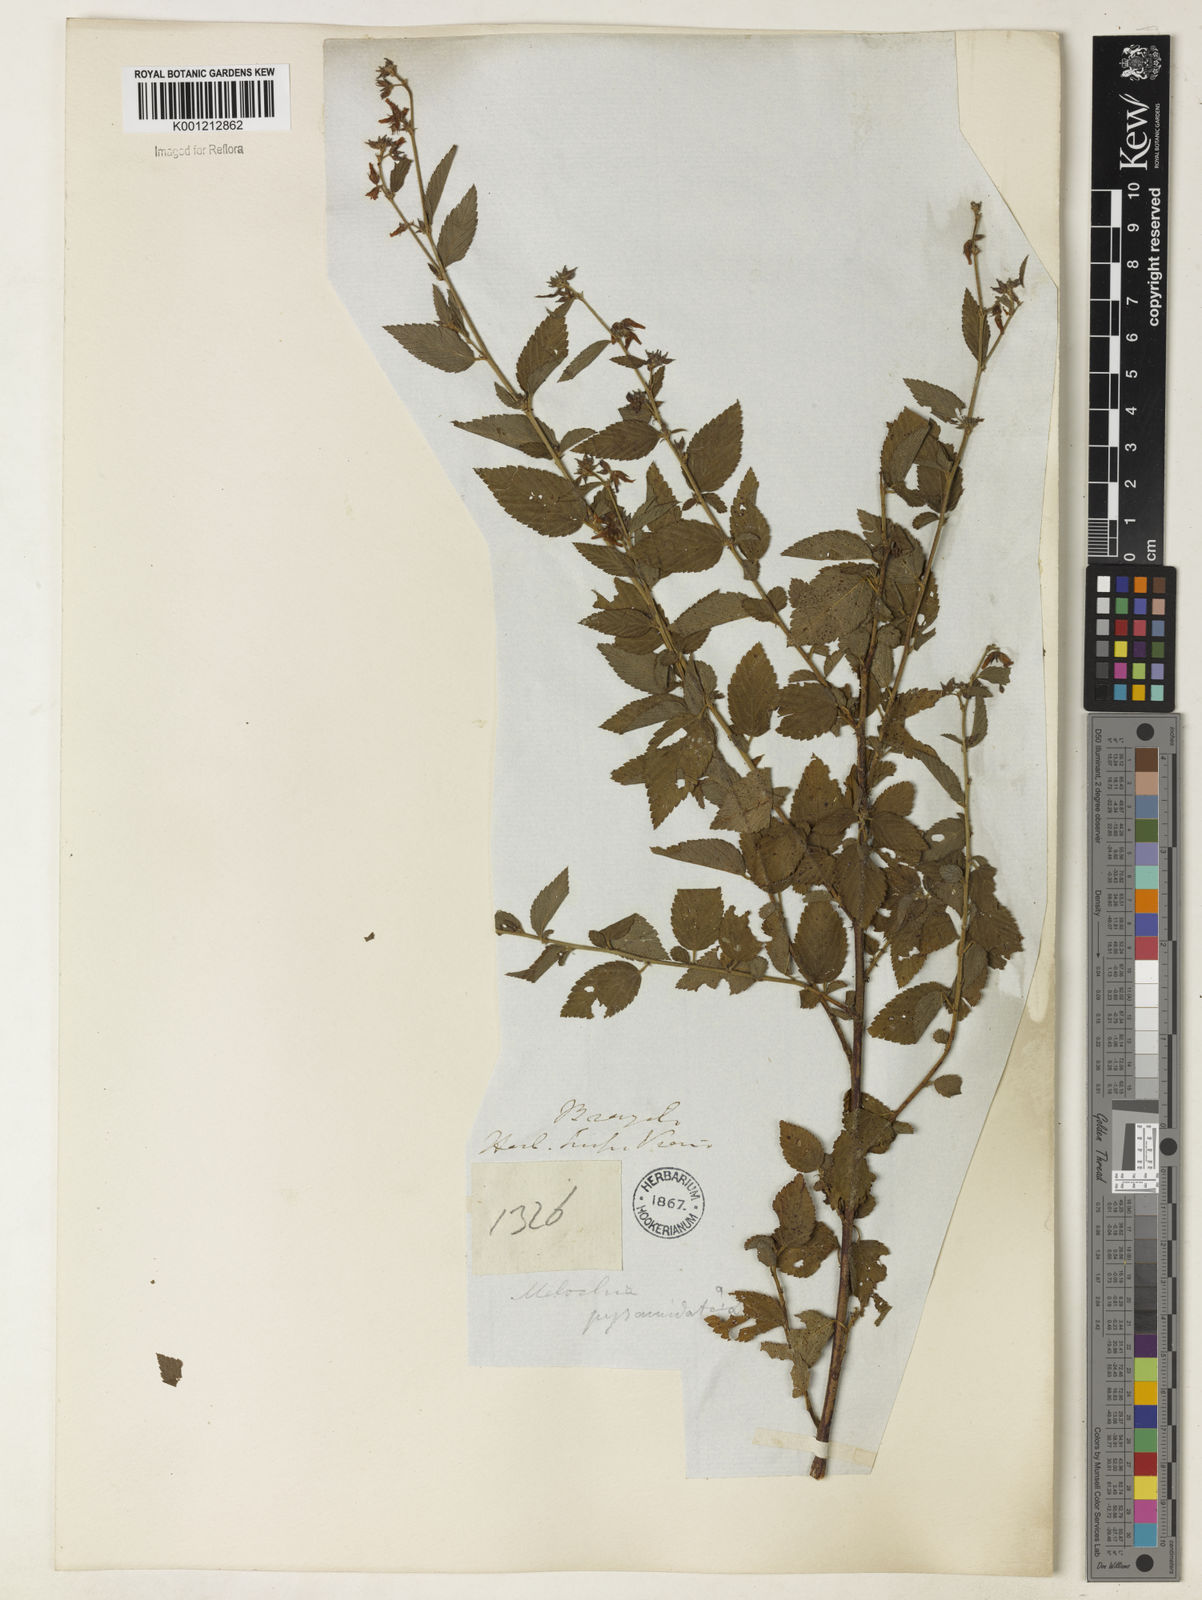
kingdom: Plantae
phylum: Tracheophyta
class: Magnoliopsida
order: Malvales
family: Malvaceae
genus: Melochia
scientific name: Melochia pyramidata
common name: Pyramidflower
